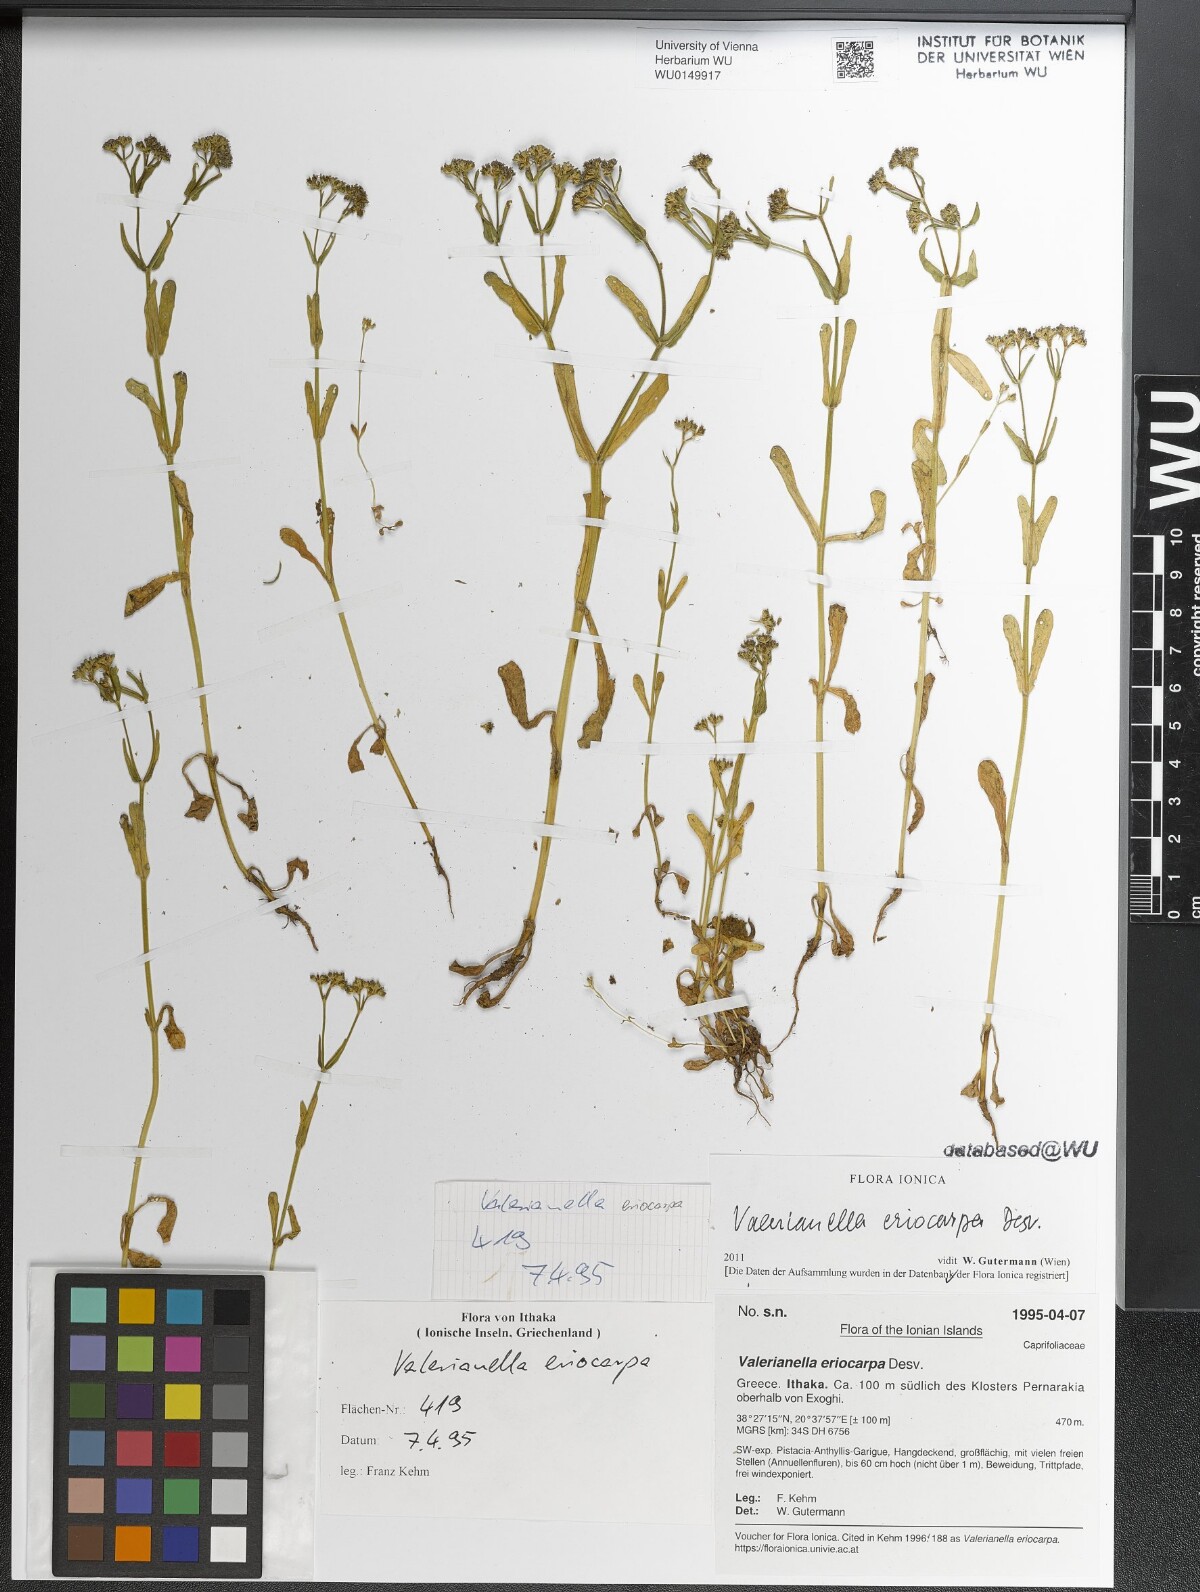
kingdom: Plantae
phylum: Tracheophyta
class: Magnoliopsida
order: Dipsacales
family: Caprifoliaceae
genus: Valerianella
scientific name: Valerianella eriocarpa
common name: Hairy-fruited cornsalad
